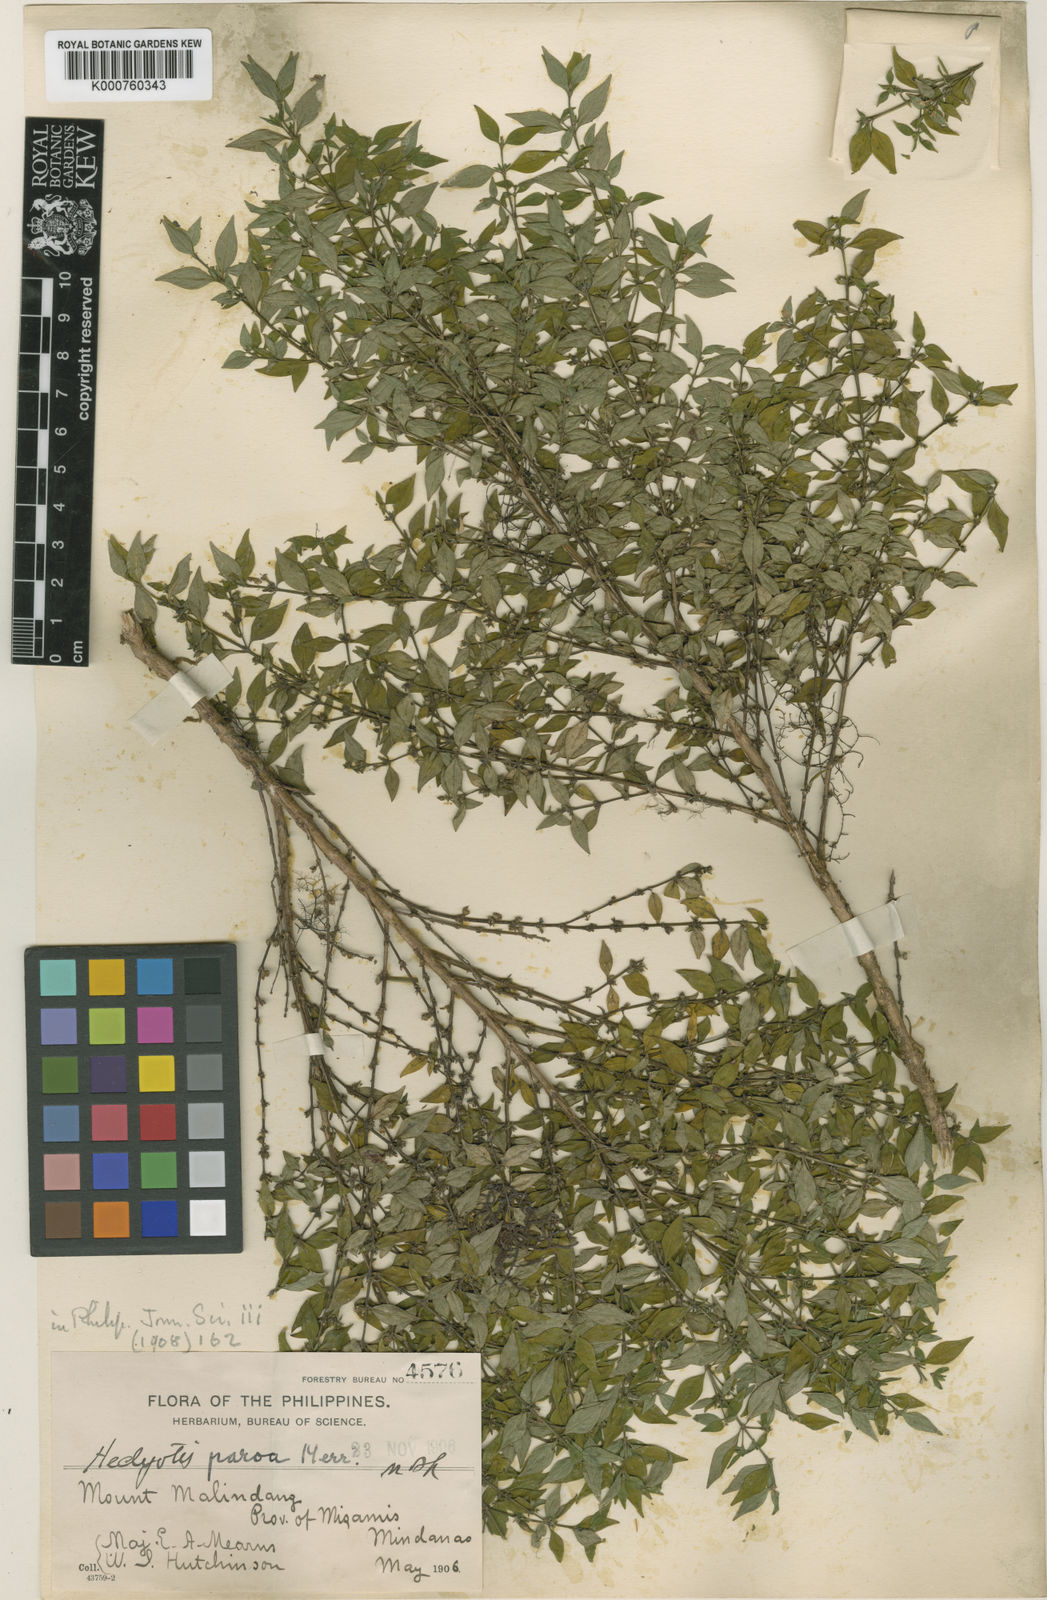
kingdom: Plantae
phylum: Tracheophyta
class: Magnoliopsida
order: Gentianales
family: Rubiaceae
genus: Exallage
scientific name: Exallage buruensis
